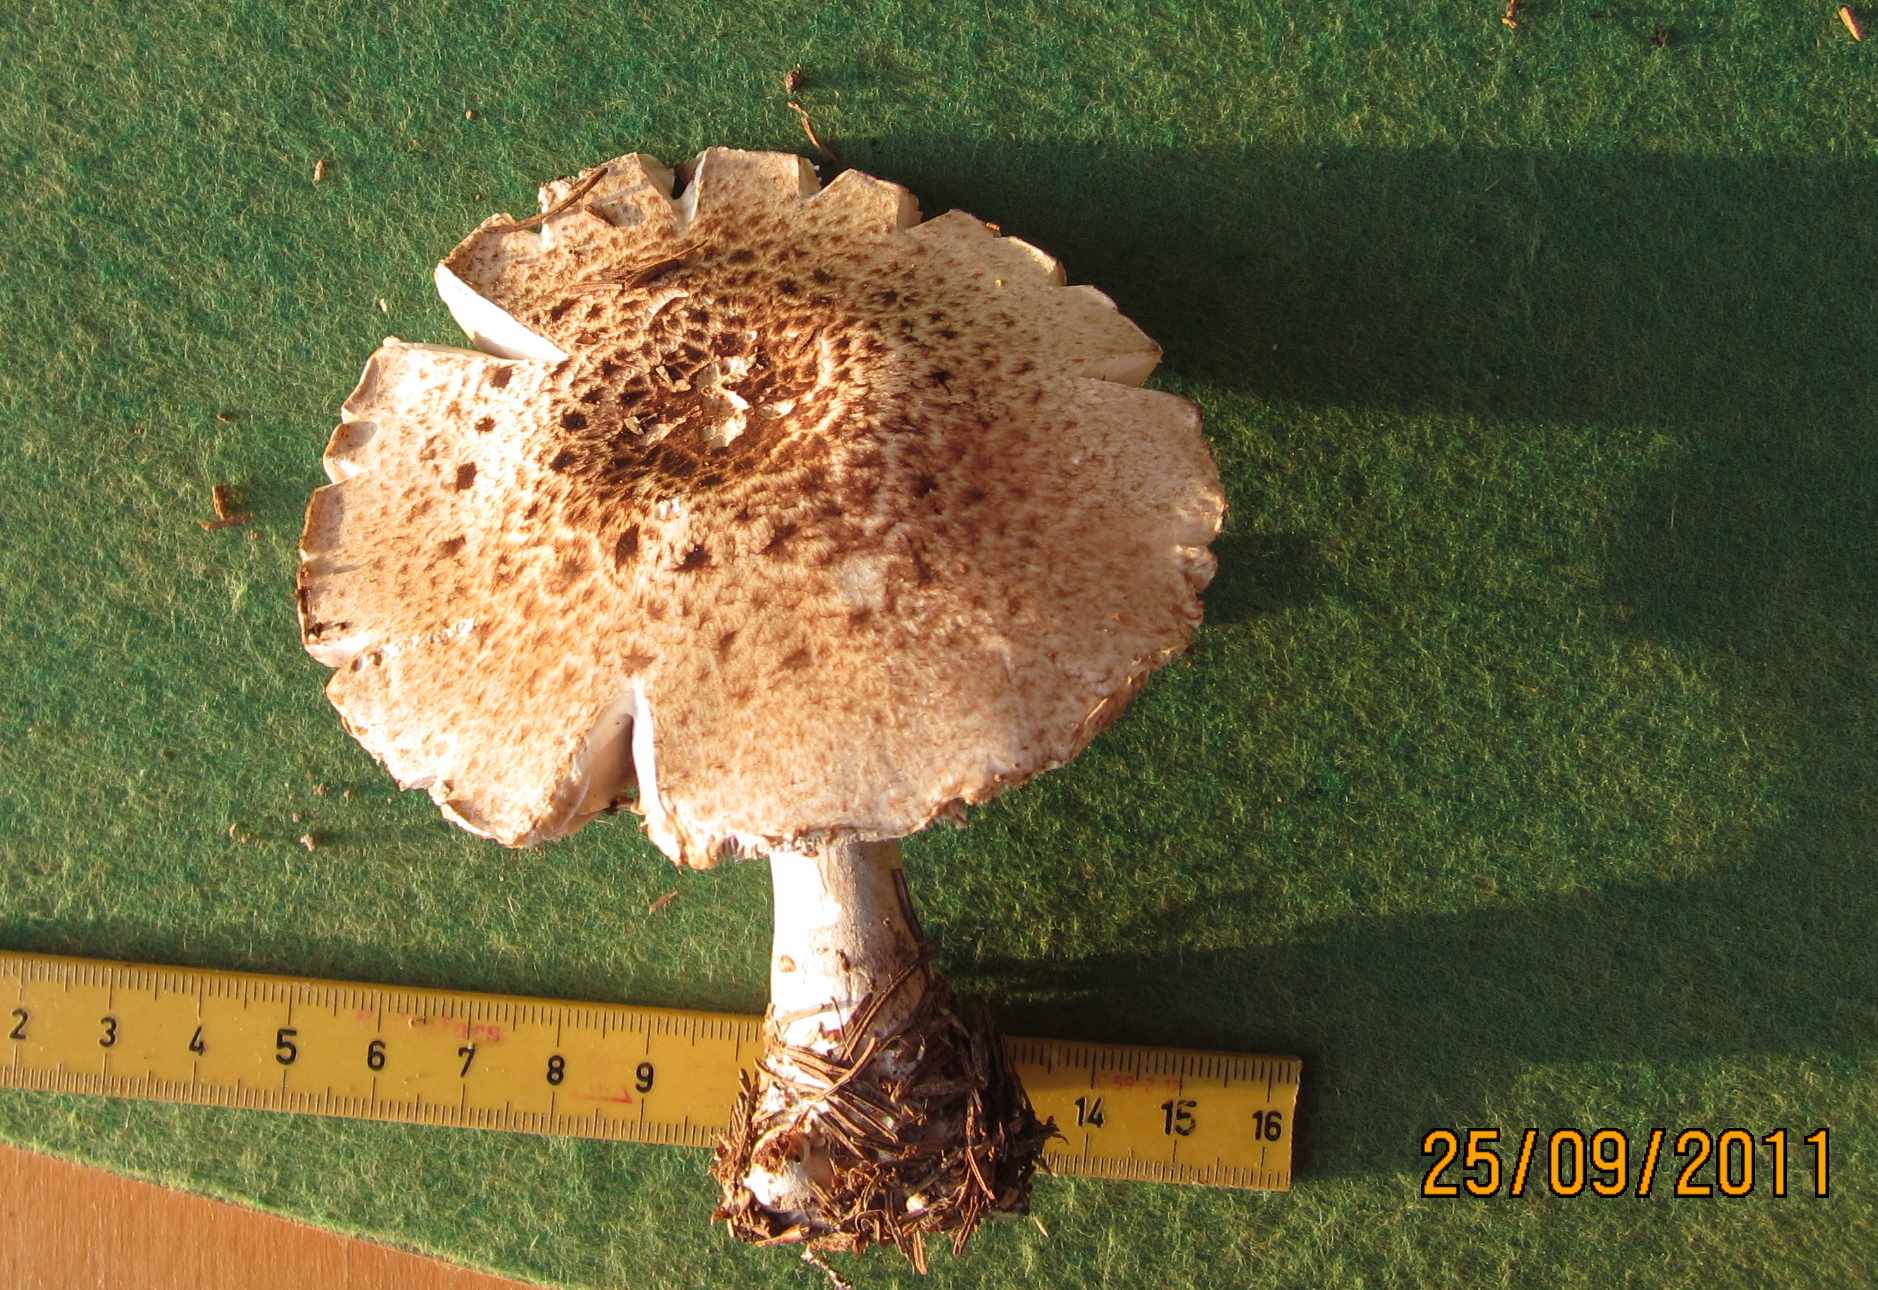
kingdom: Fungi
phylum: Basidiomycota
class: Agaricomycetes
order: Agaricales
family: Agaricaceae
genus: Agaricus
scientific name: Agaricus impudicus
